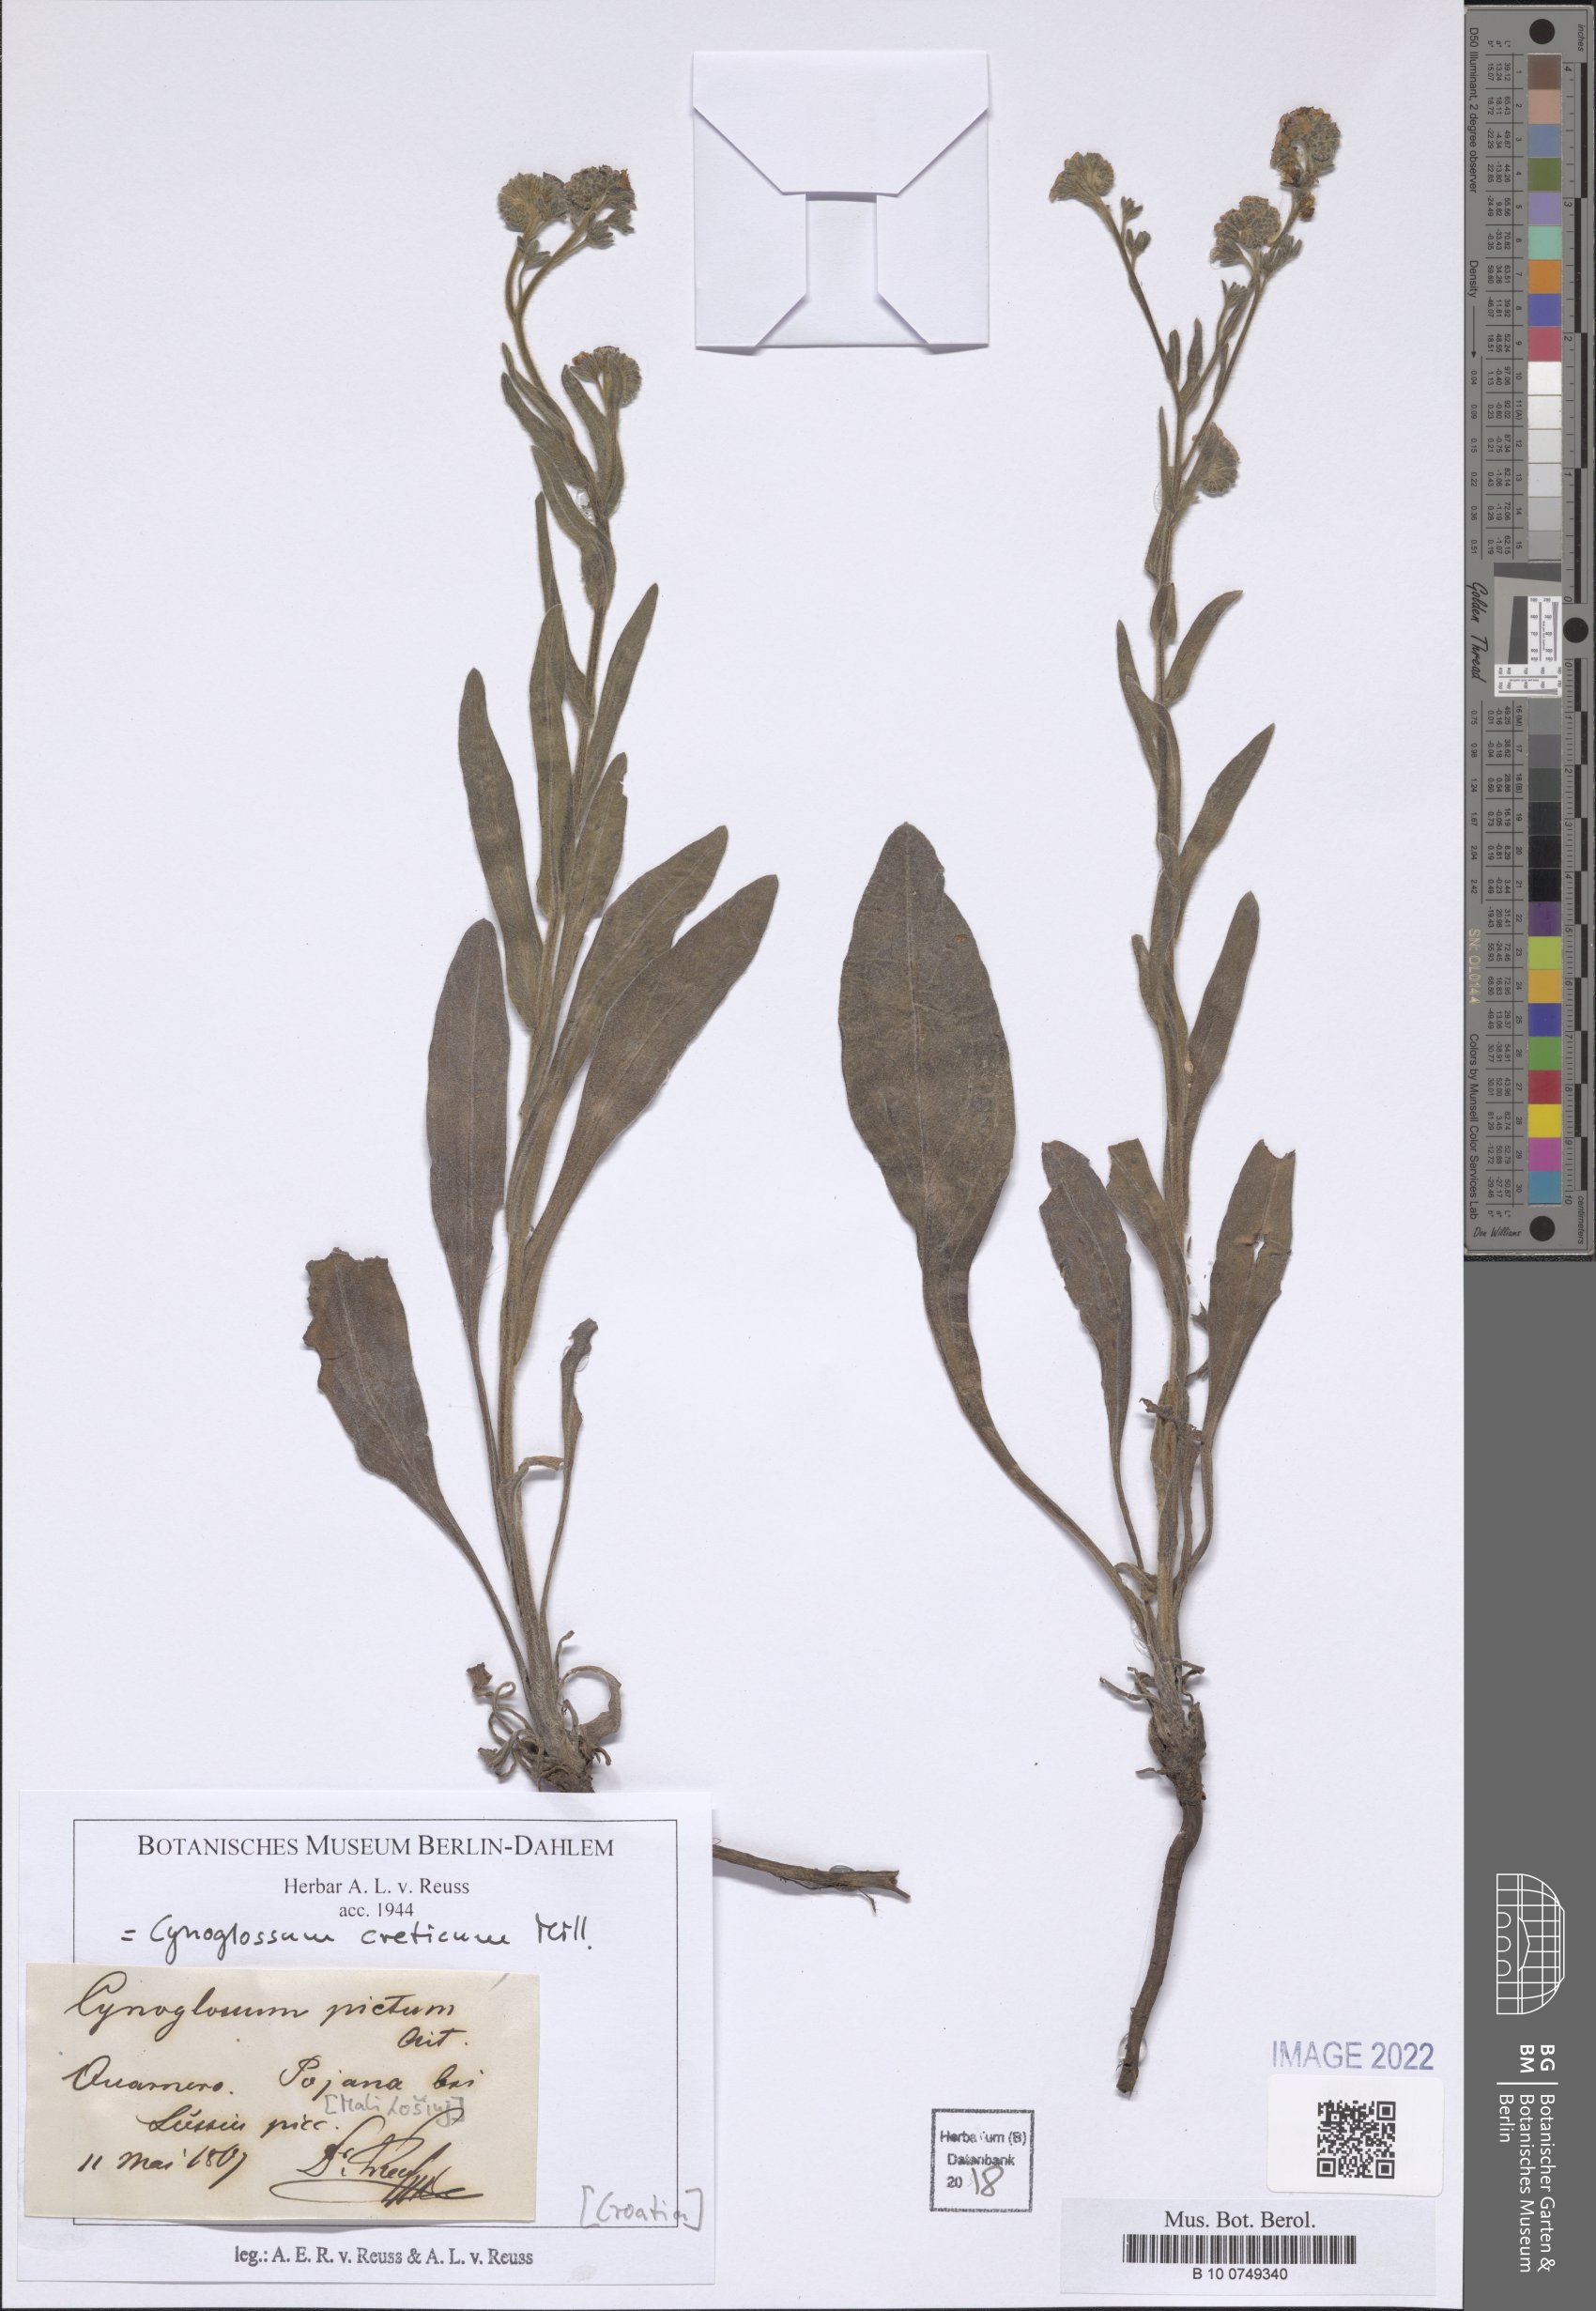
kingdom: Plantae
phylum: Tracheophyta
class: Magnoliopsida
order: Boraginales
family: Boraginaceae
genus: Cynoglossum
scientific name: Cynoglossum creticum
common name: Blue hound's tongue
